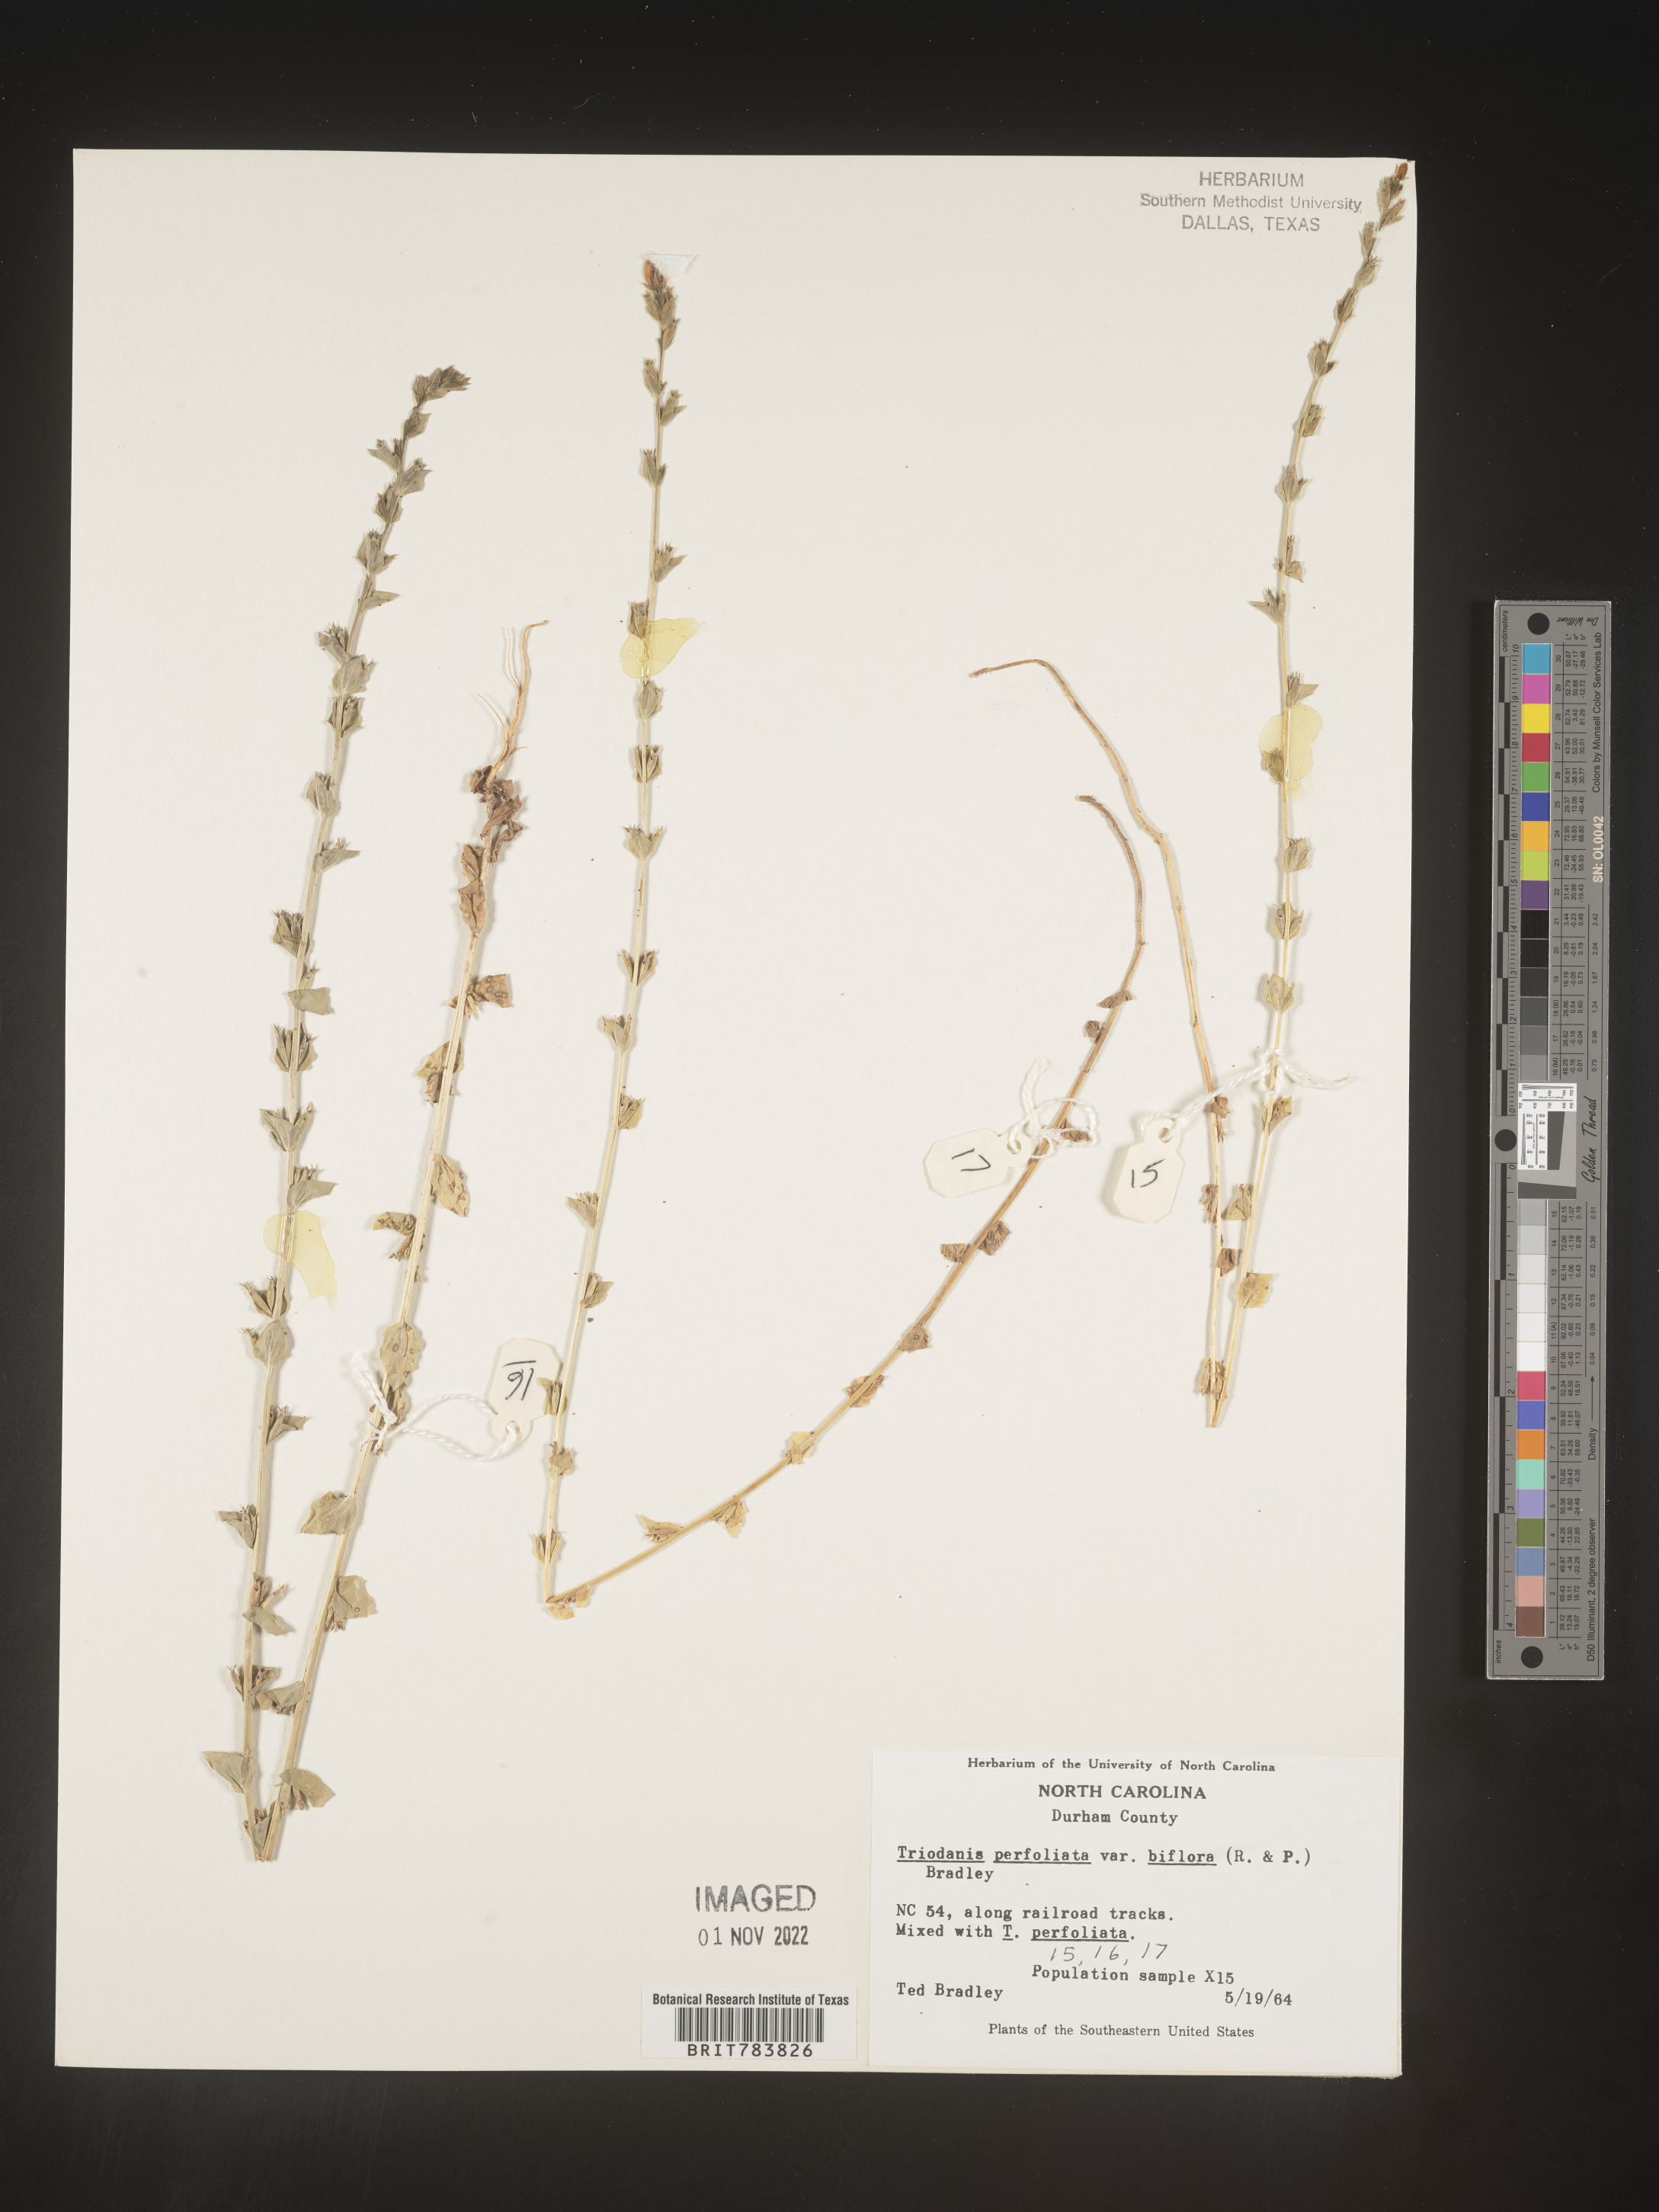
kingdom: Plantae
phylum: Tracheophyta
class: Magnoliopsida
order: Asterales
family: Campanulaceae
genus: Triodanis
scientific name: Triodanis perfoliata
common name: Clasping venus' looking-glass
